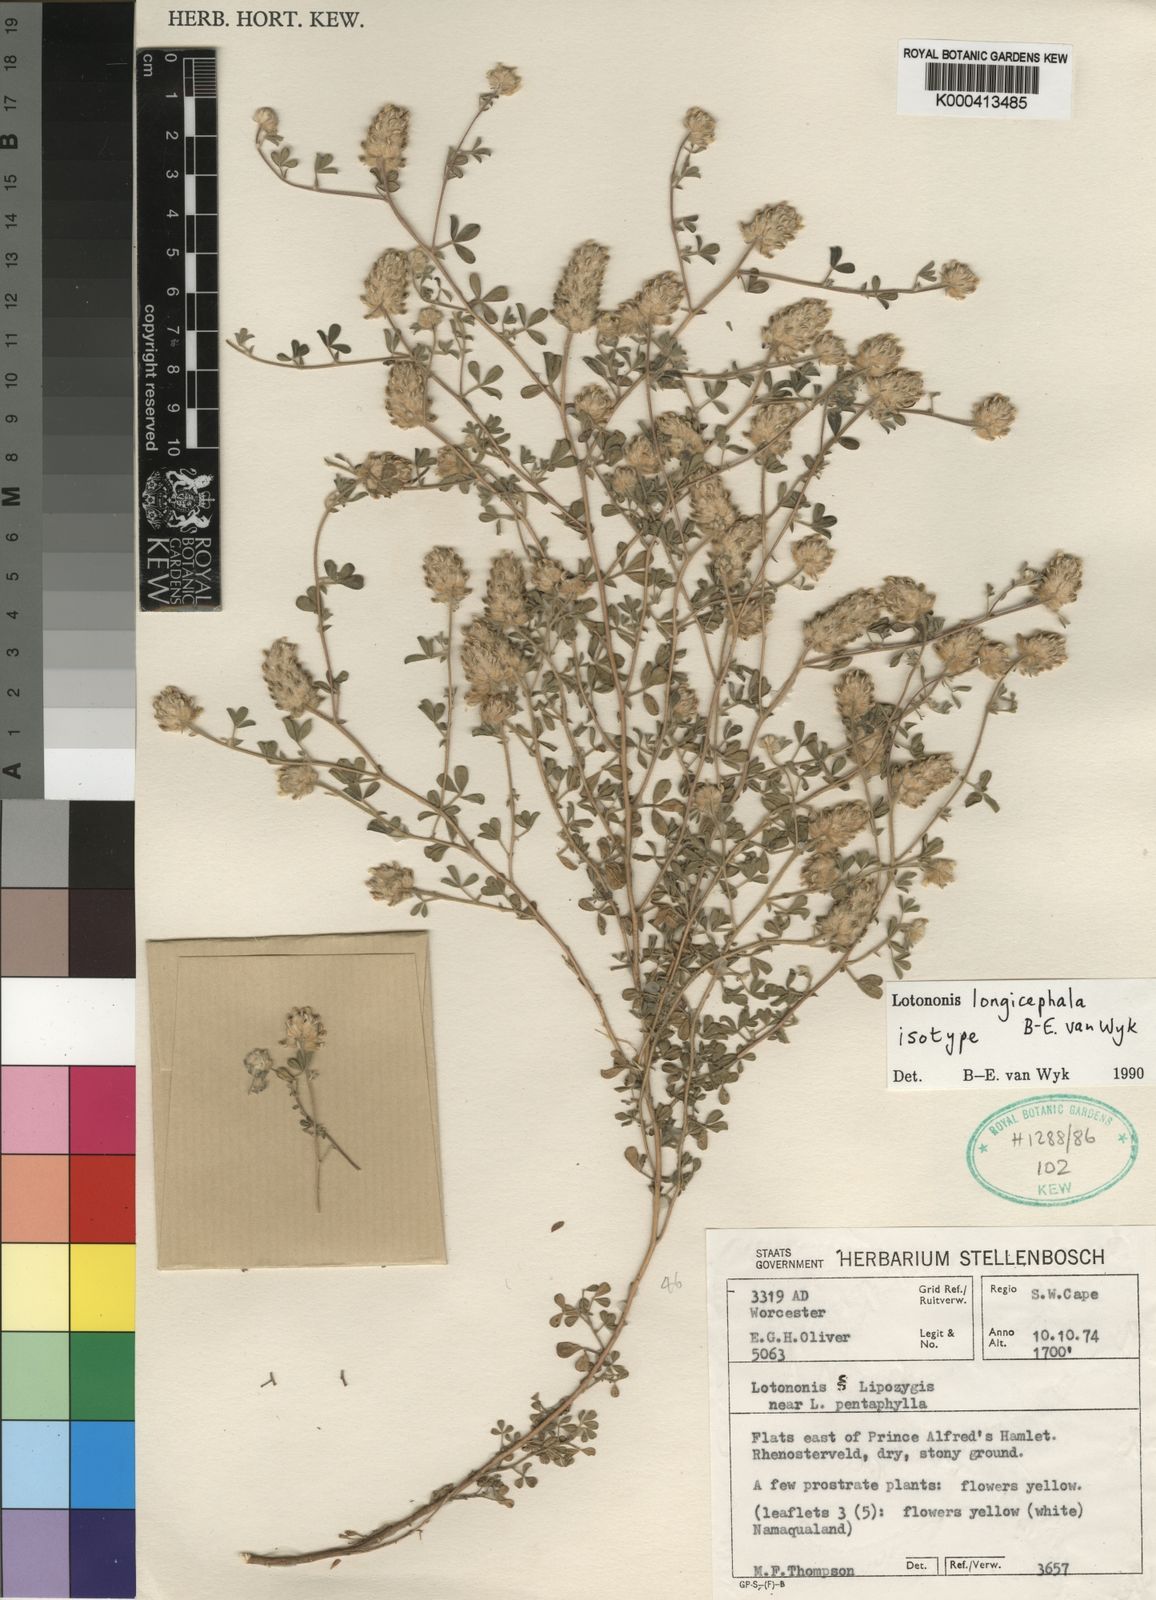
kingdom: Plantae
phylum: Tracheophyta
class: Magnoliopsida
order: Fabales
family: Fabaceae
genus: Leobordea
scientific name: Leobordea longicephala
